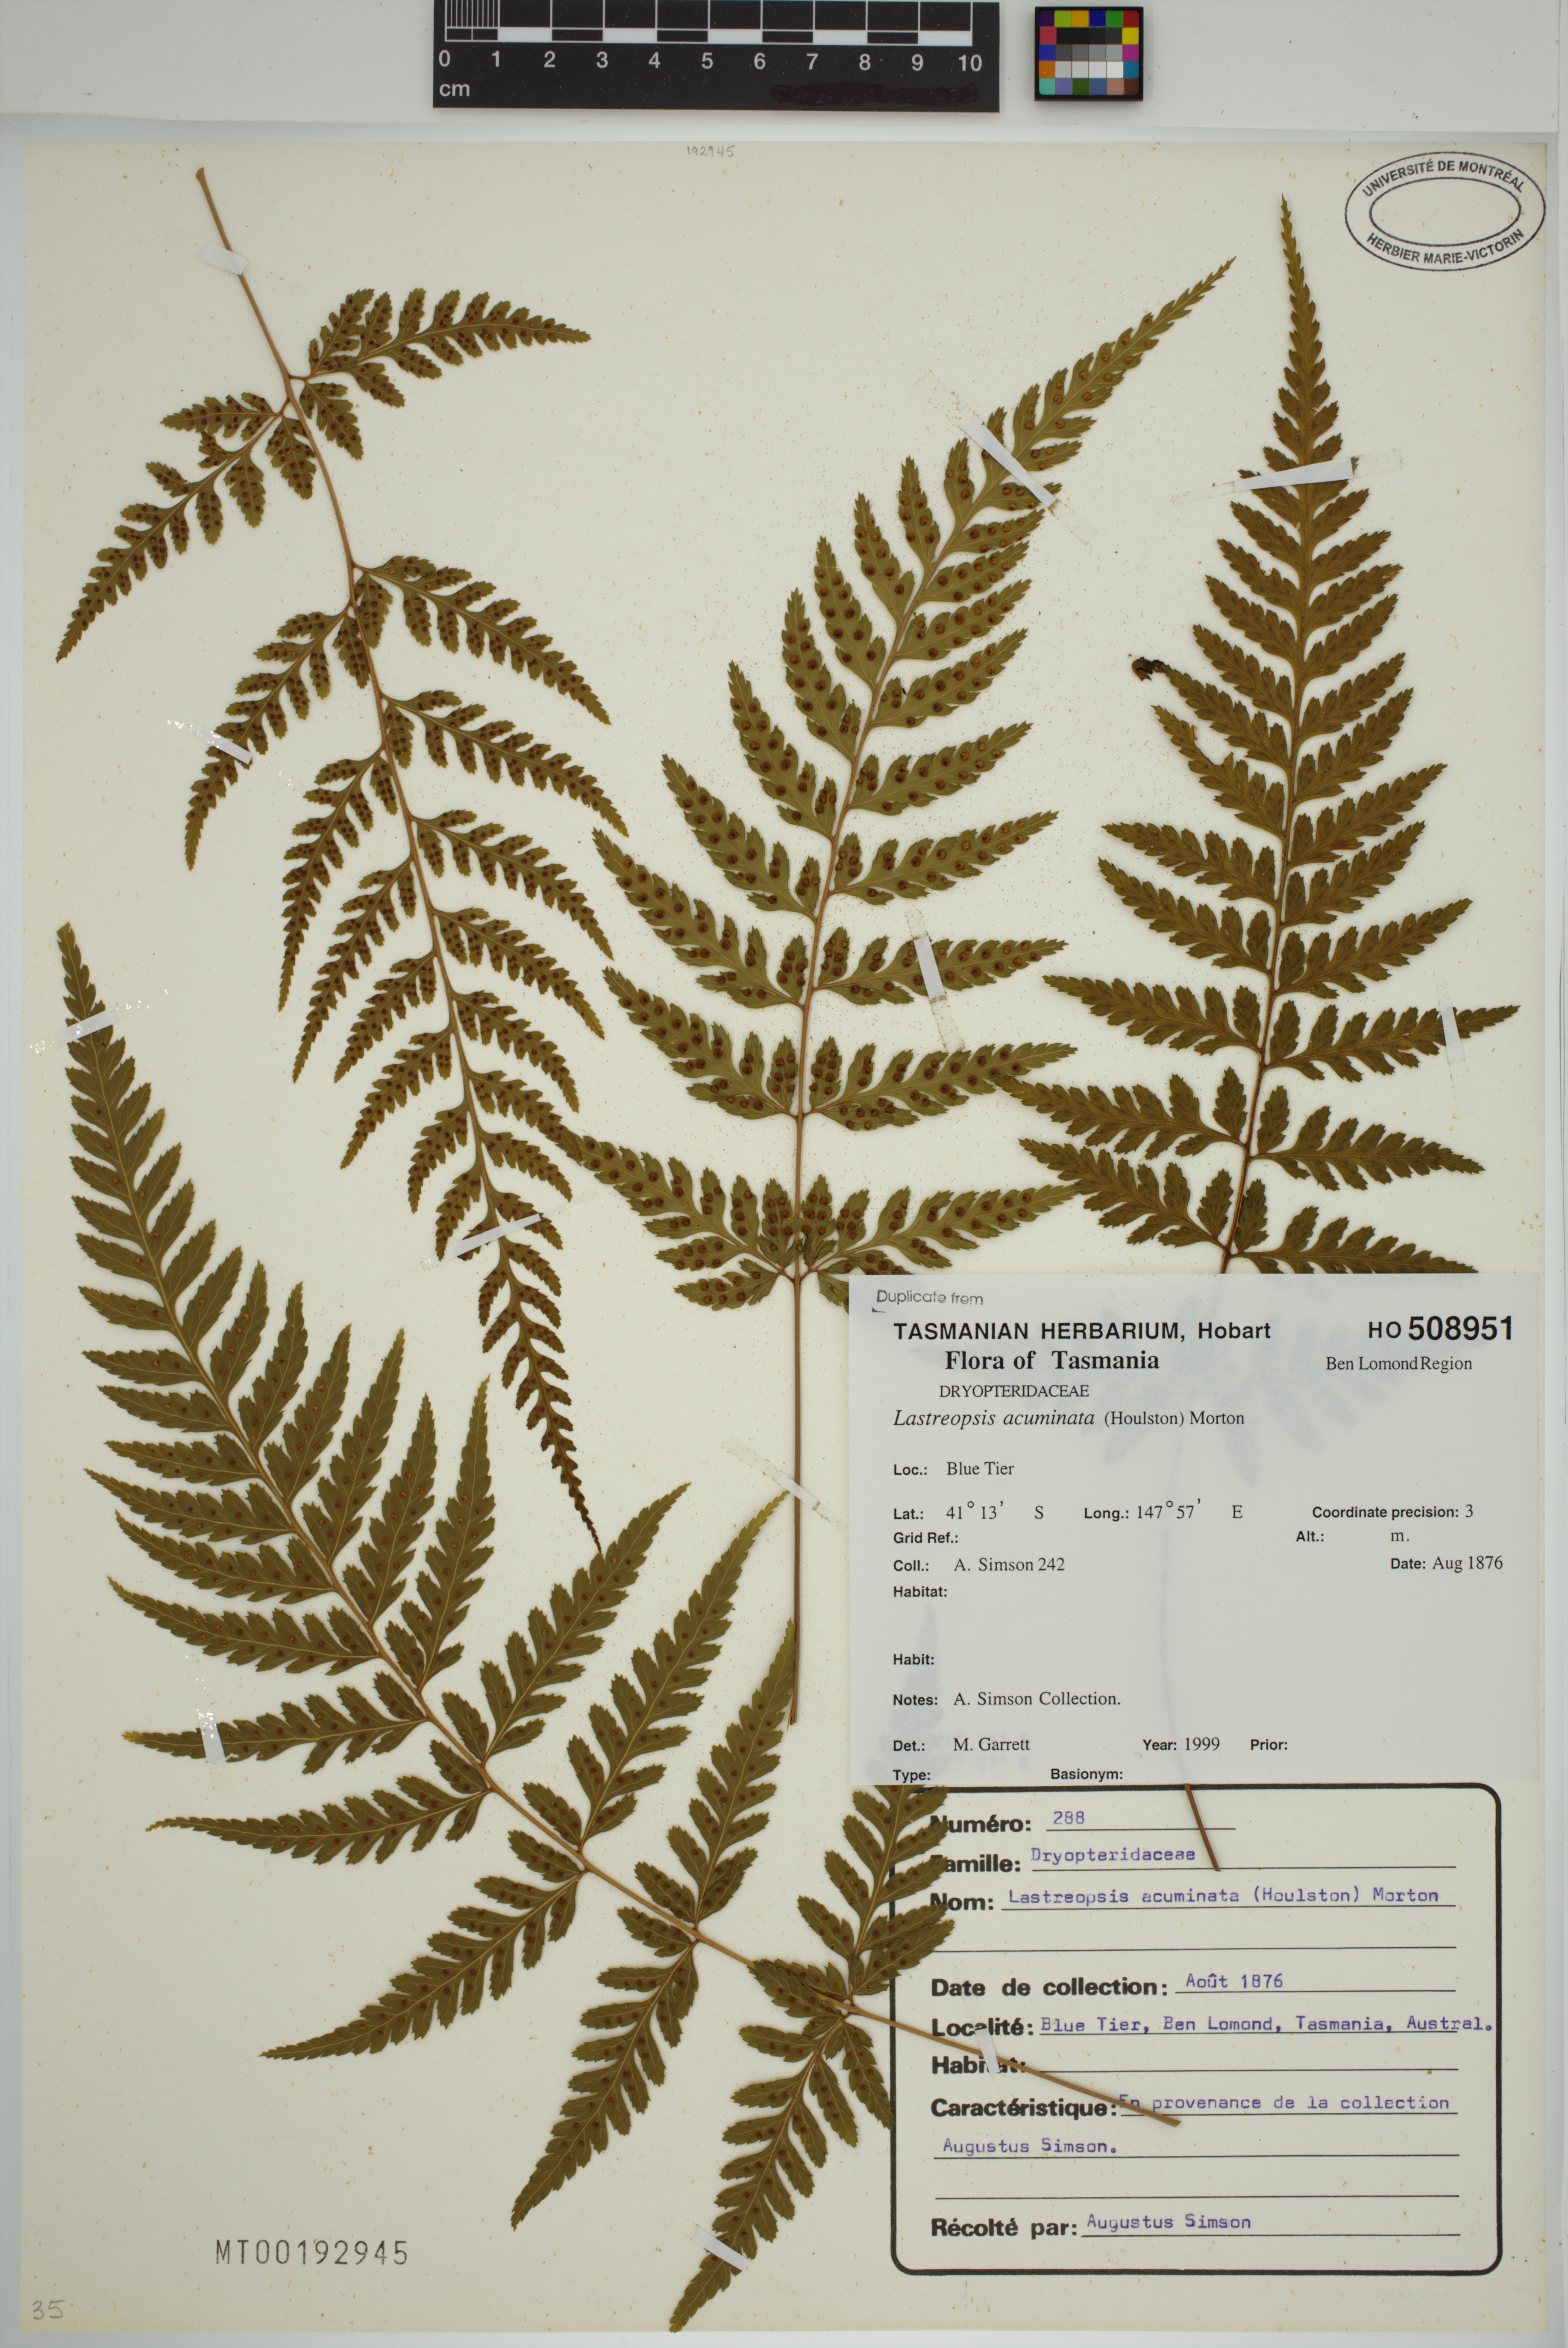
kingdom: Plantae
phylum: Tracheophyta
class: Polypodiopsida
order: Polypodiales
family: Dryopteridaceae
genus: Parapolystichum
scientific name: Parapolystichum acuminatum
